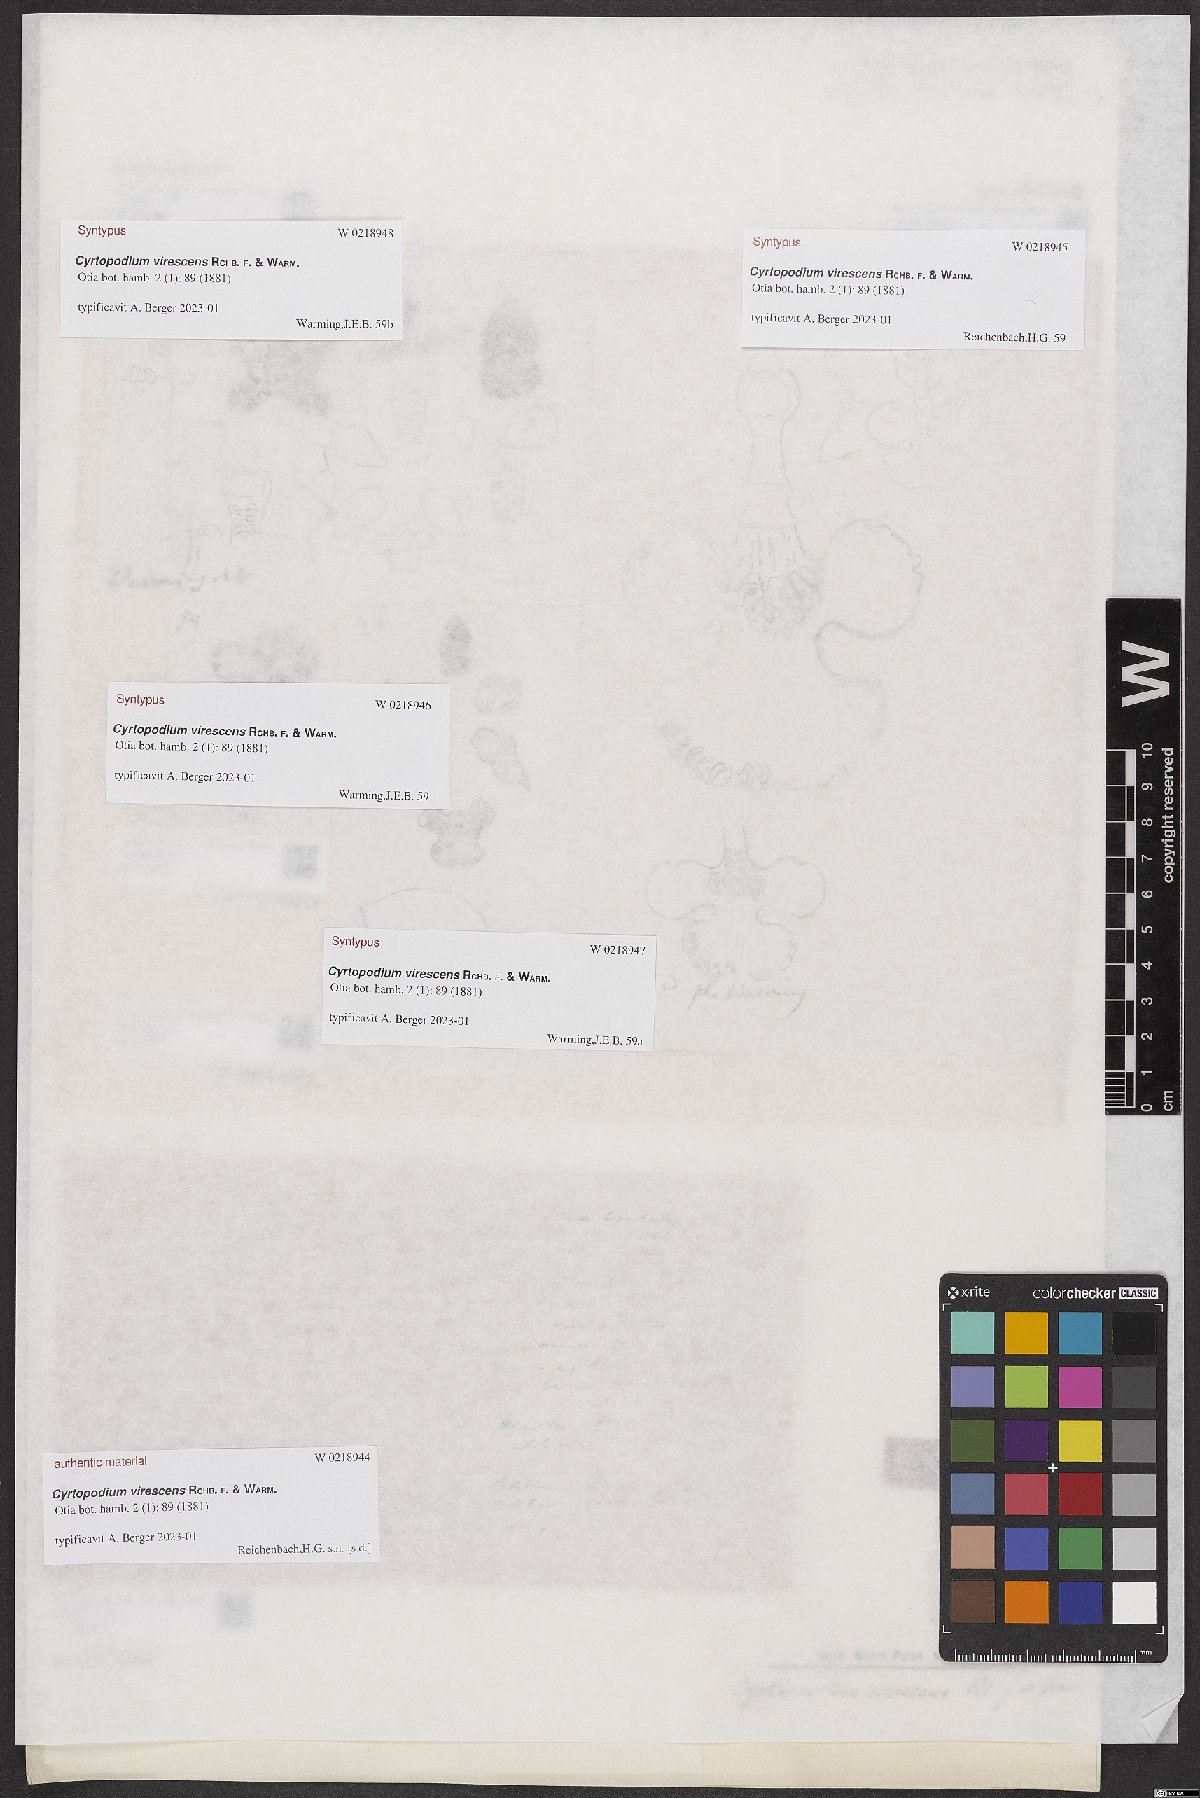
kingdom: Plantae
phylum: Tracheophyta
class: Liliopsida
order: Asparagales
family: Orchidaceae
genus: Cyrtopodium
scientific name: Cyrtopodium virescens
